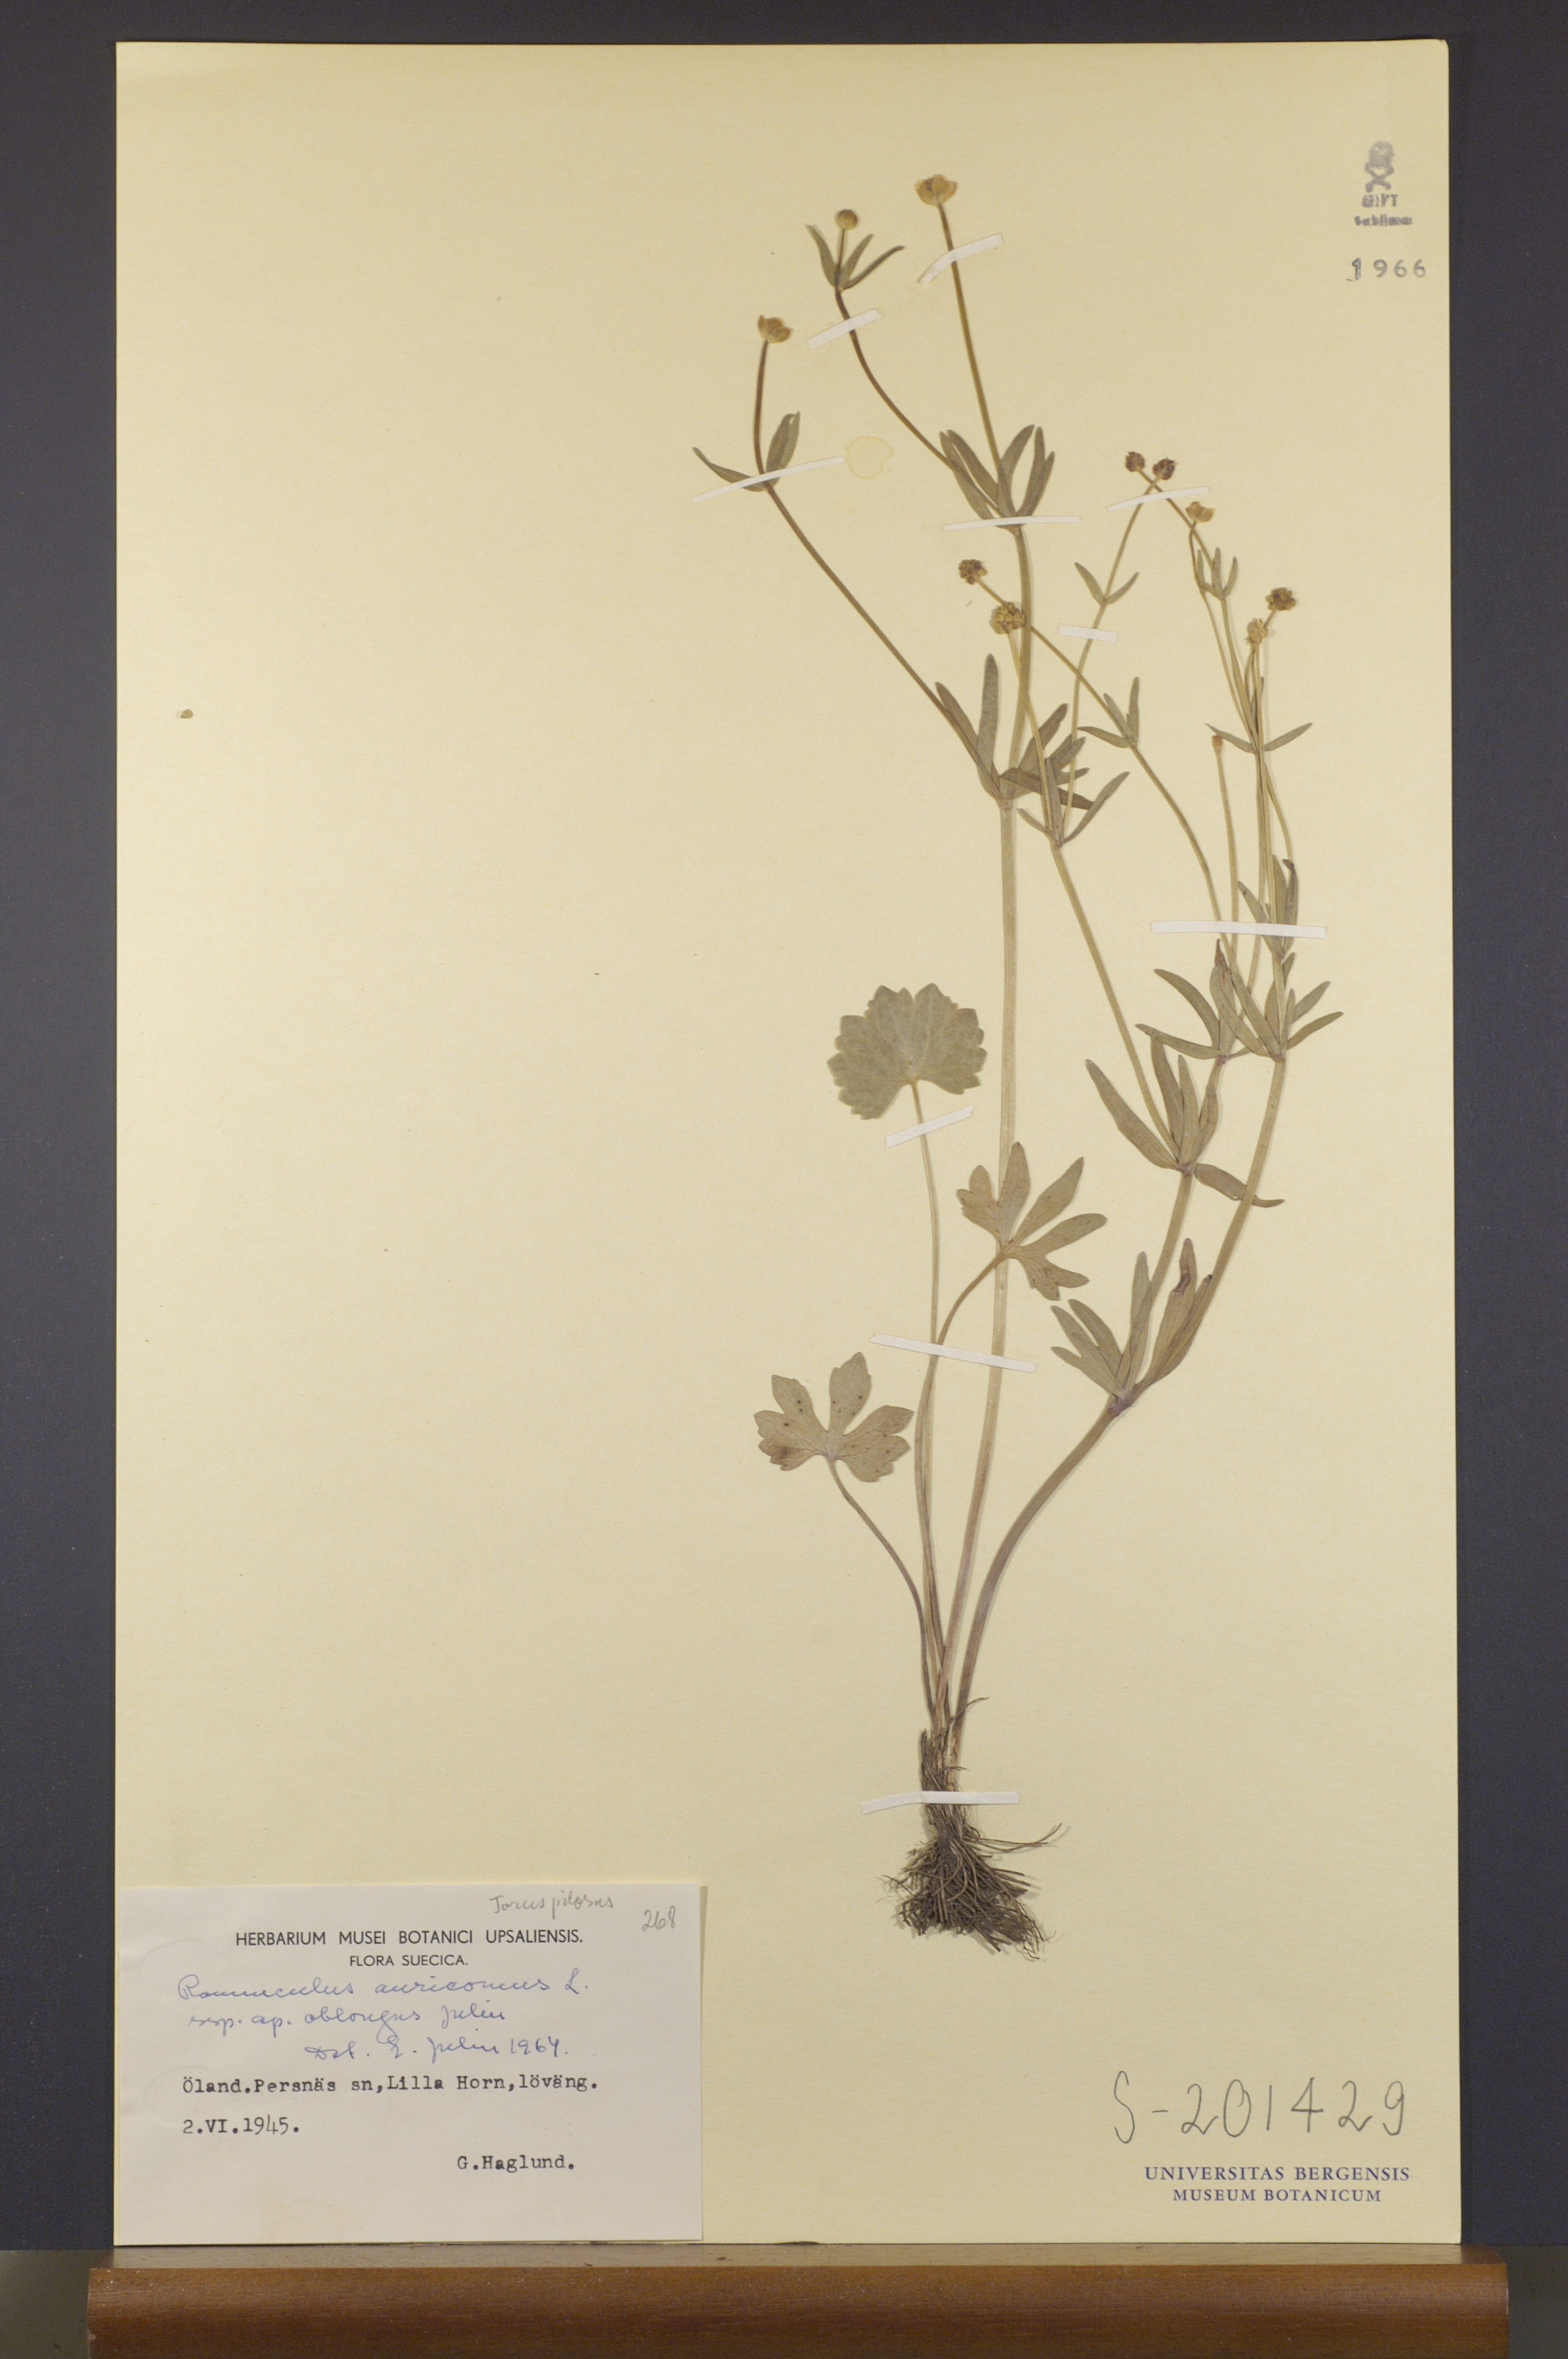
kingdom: Plantae
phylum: Tracheophyta
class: Magnoliopsida
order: Ranunculales
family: Ranunculaceae
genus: Ranunculus
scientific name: Ranunculus oblongus
